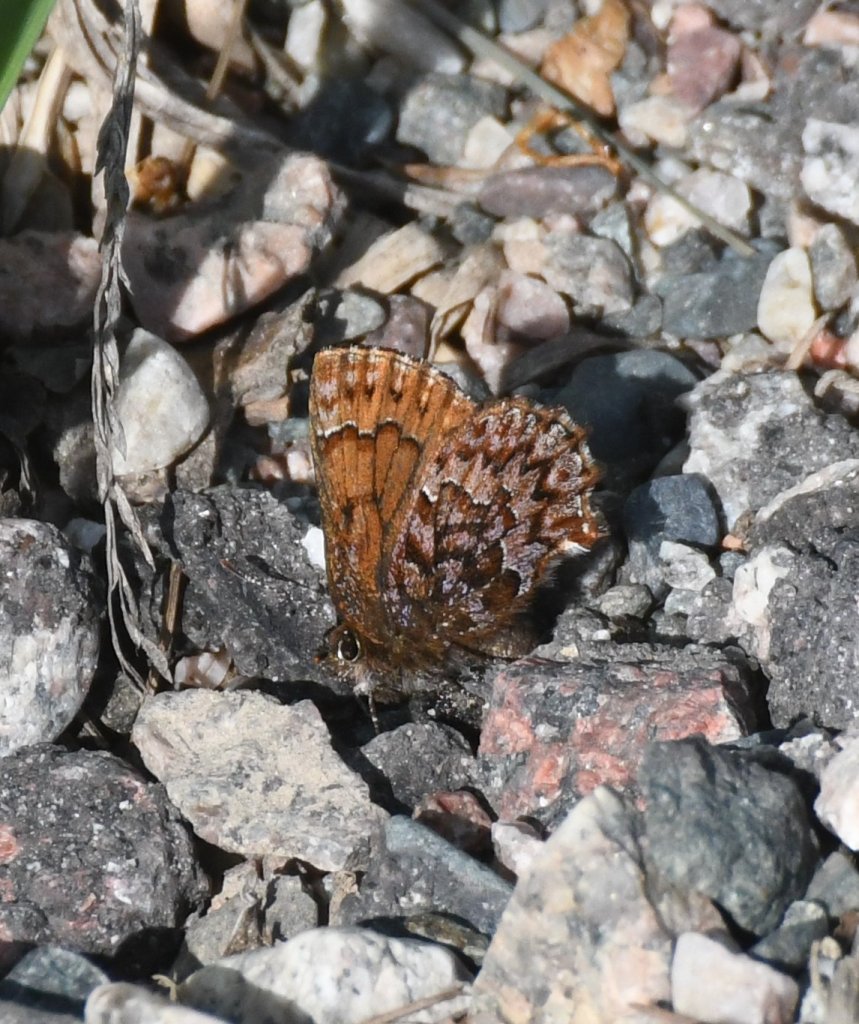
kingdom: Animalia
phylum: Arthropoda
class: Insecta
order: Lepidoptera
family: Lycaenidae
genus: Incisalia
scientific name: Incisalia eryphon
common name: Western Pine Elfin
